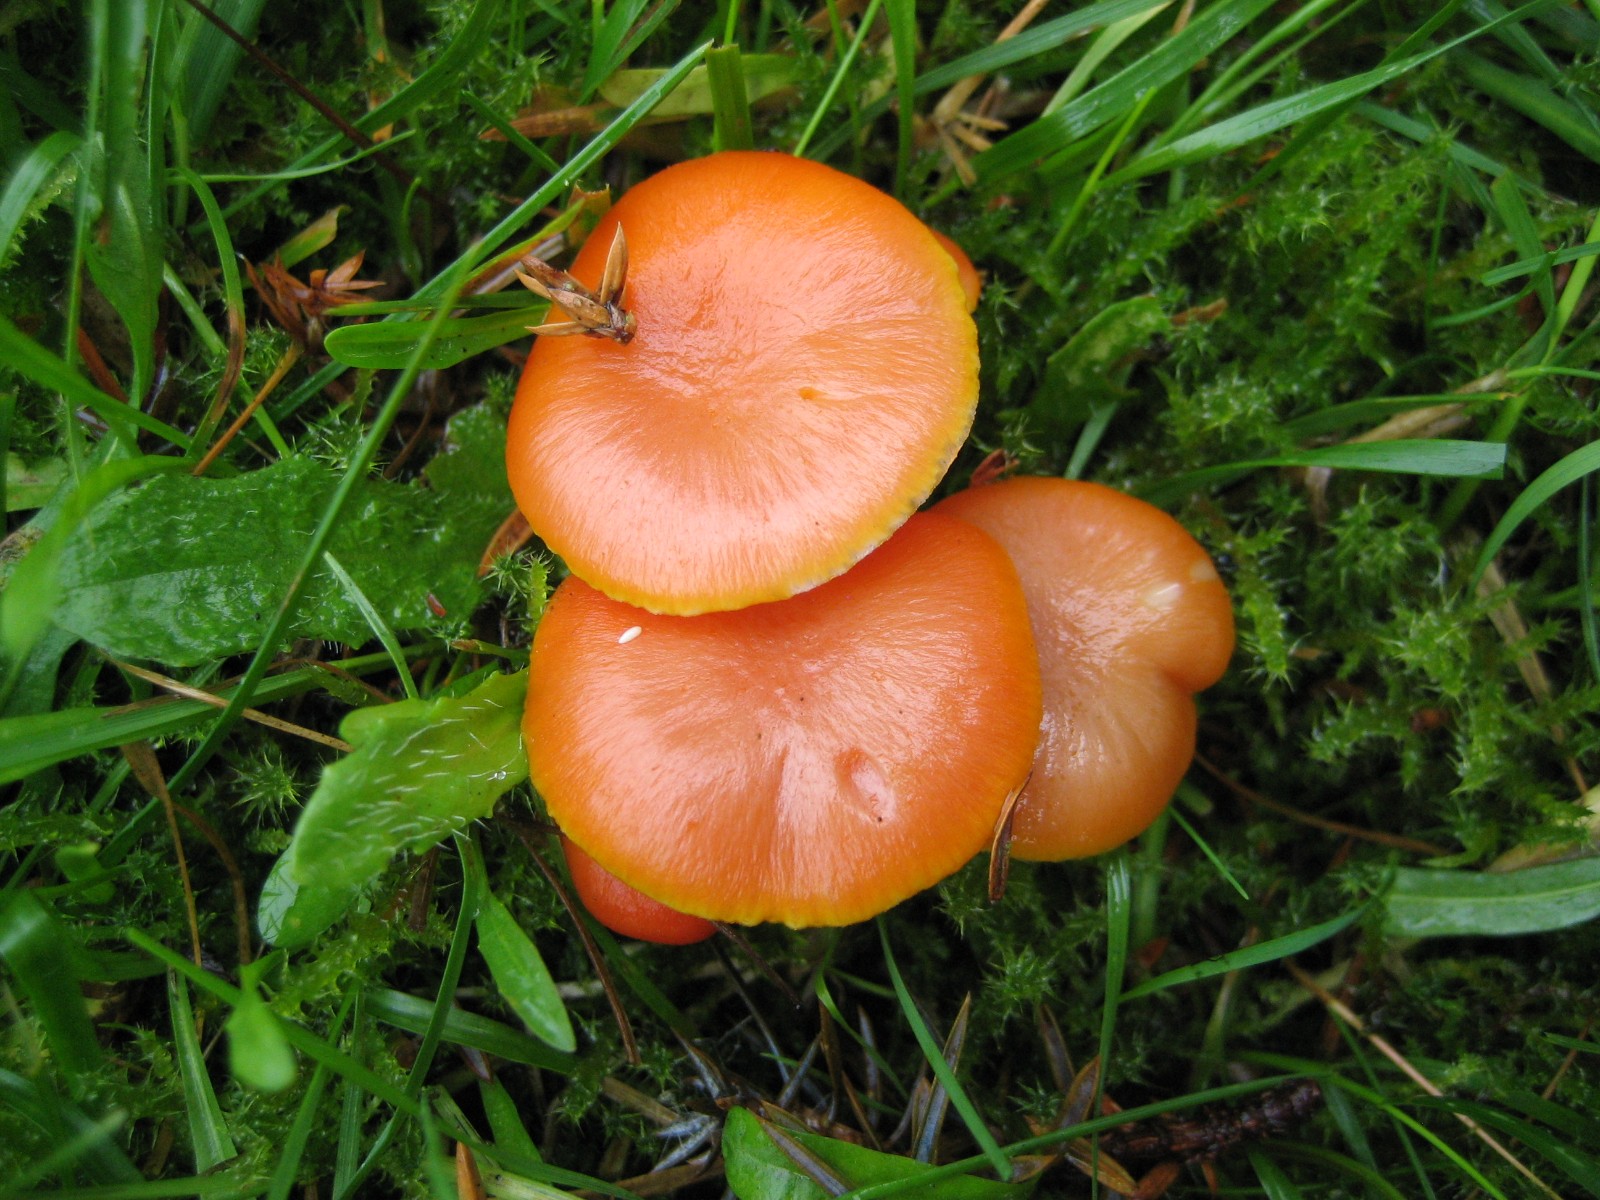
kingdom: Fungi
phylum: Basidiomycota
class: Agaricomycetes
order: Agaricales
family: Hygrophoraceae
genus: Hygrocybe
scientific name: Hygrocybe reidii
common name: honning-vokshat
